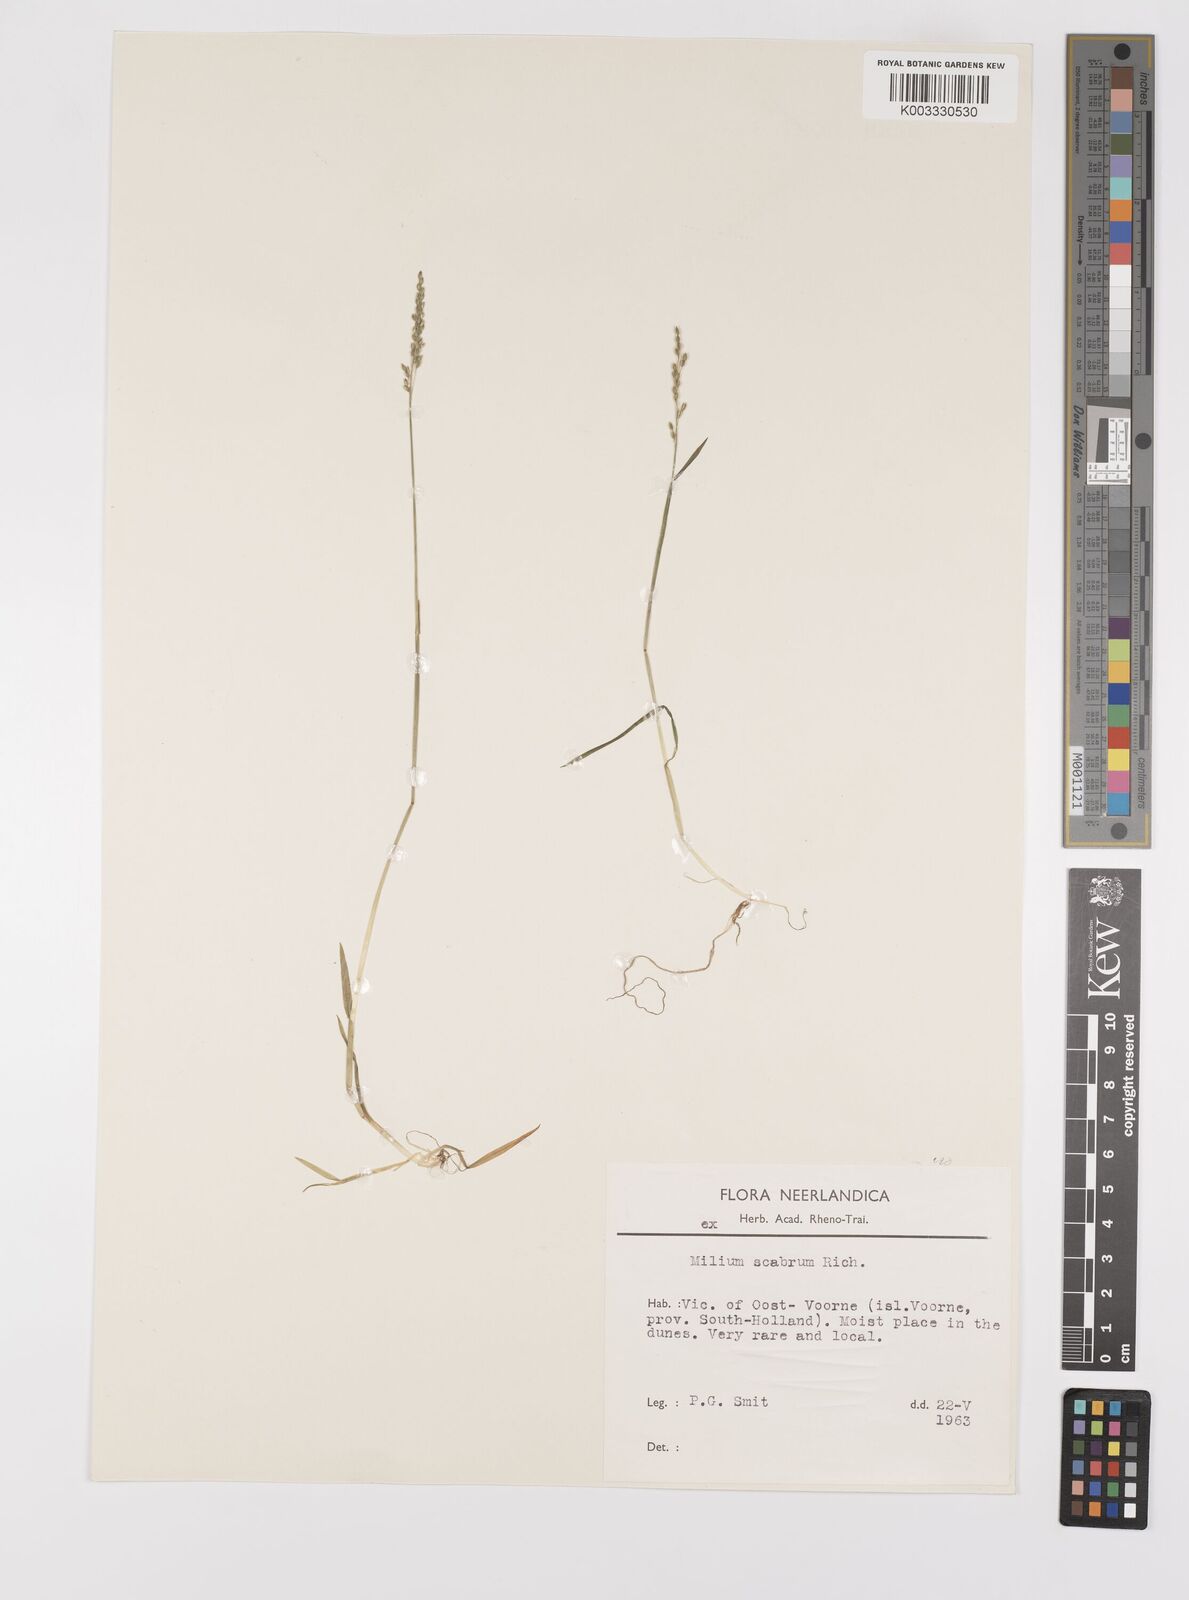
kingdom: Plantae
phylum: Tracheophyta
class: Liliopsida
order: Poales
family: Poaceae
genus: Milium
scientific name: Milium vernale
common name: Early millet
